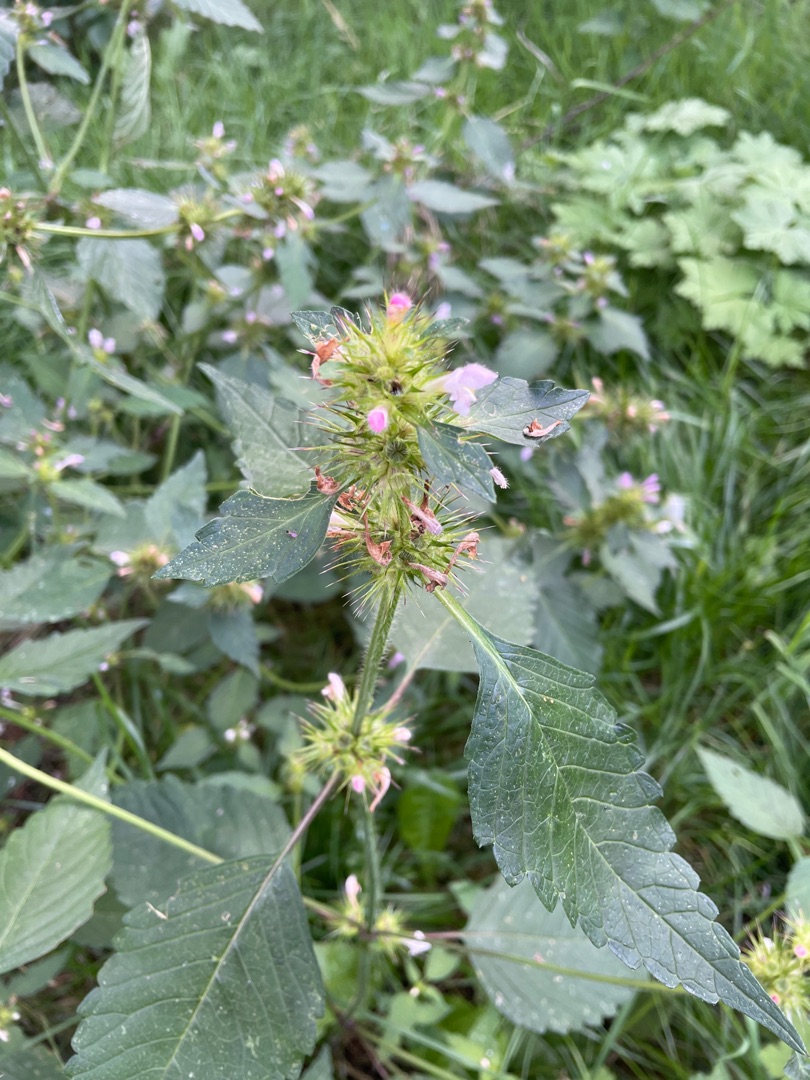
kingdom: Plantae
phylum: Tracheophyta
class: Magnoliopsida
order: Lamiales
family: Lamiaceae
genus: Galeopsis
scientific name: Galeopsis tetrahit
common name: Almindelig hanekro
